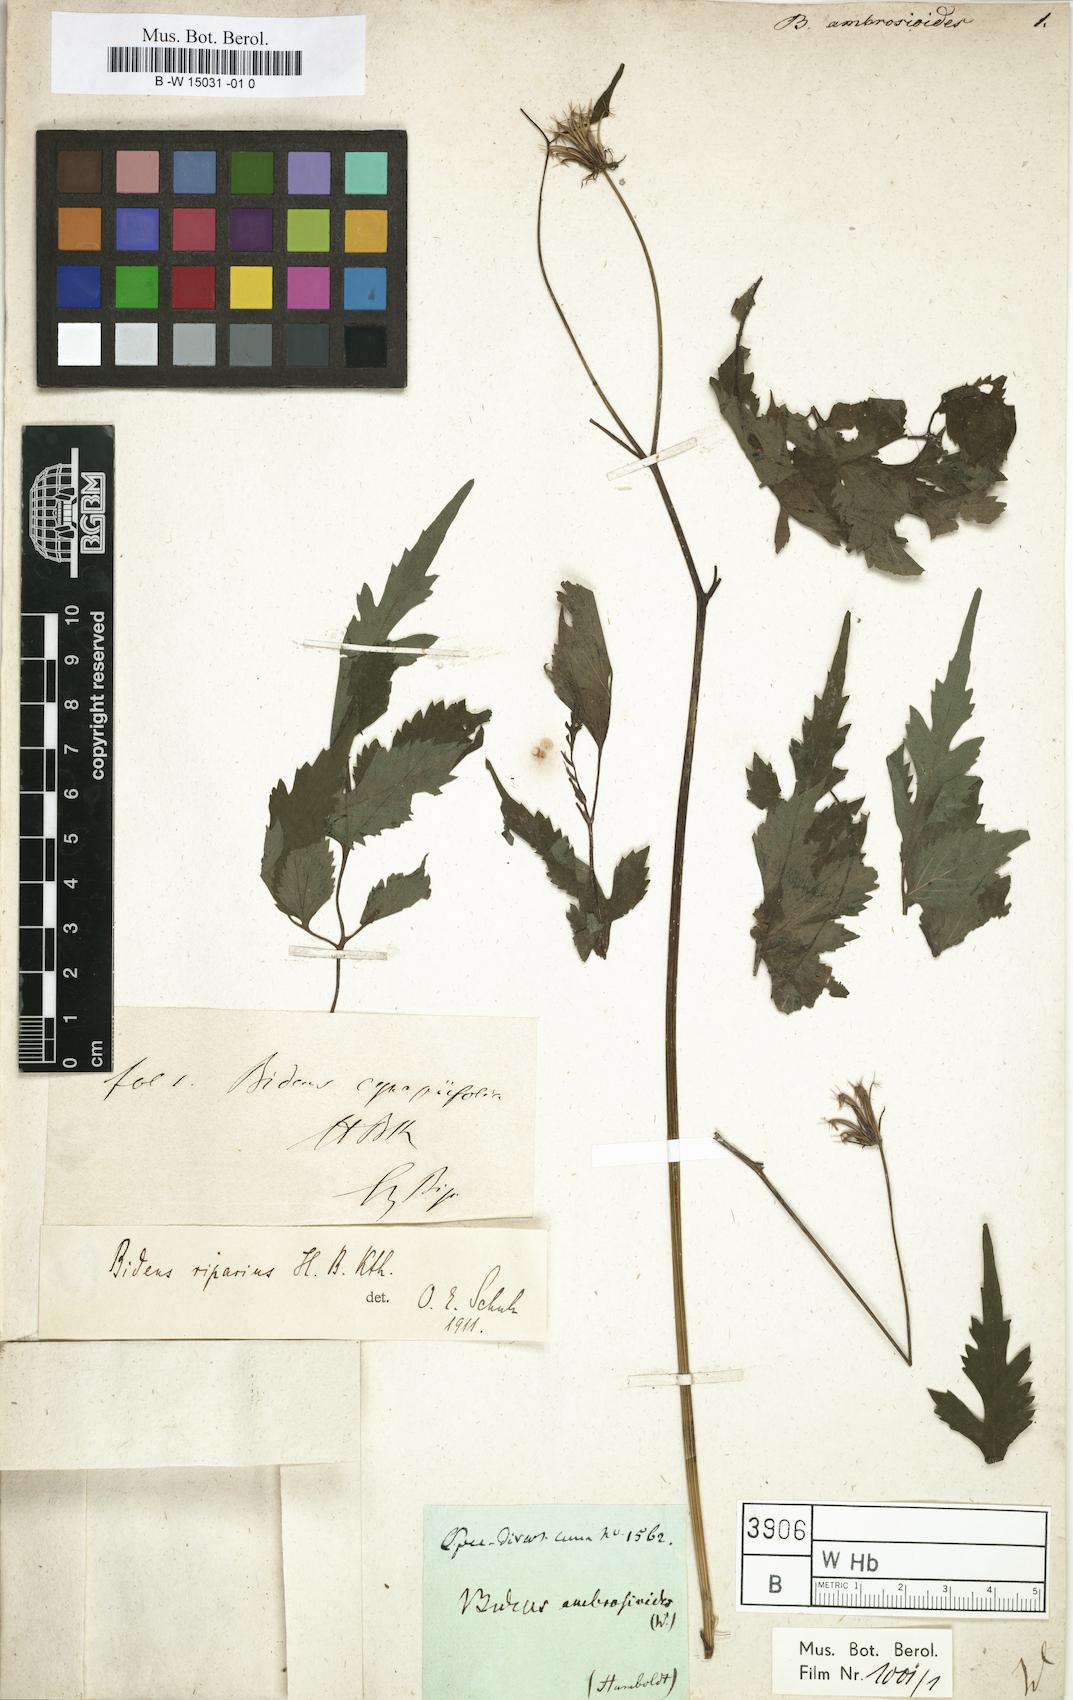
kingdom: Plantae
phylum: Tracheophyta
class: Magnoliopsida
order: Asterales
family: Asteraceae
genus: Bidens
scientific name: Bidens
